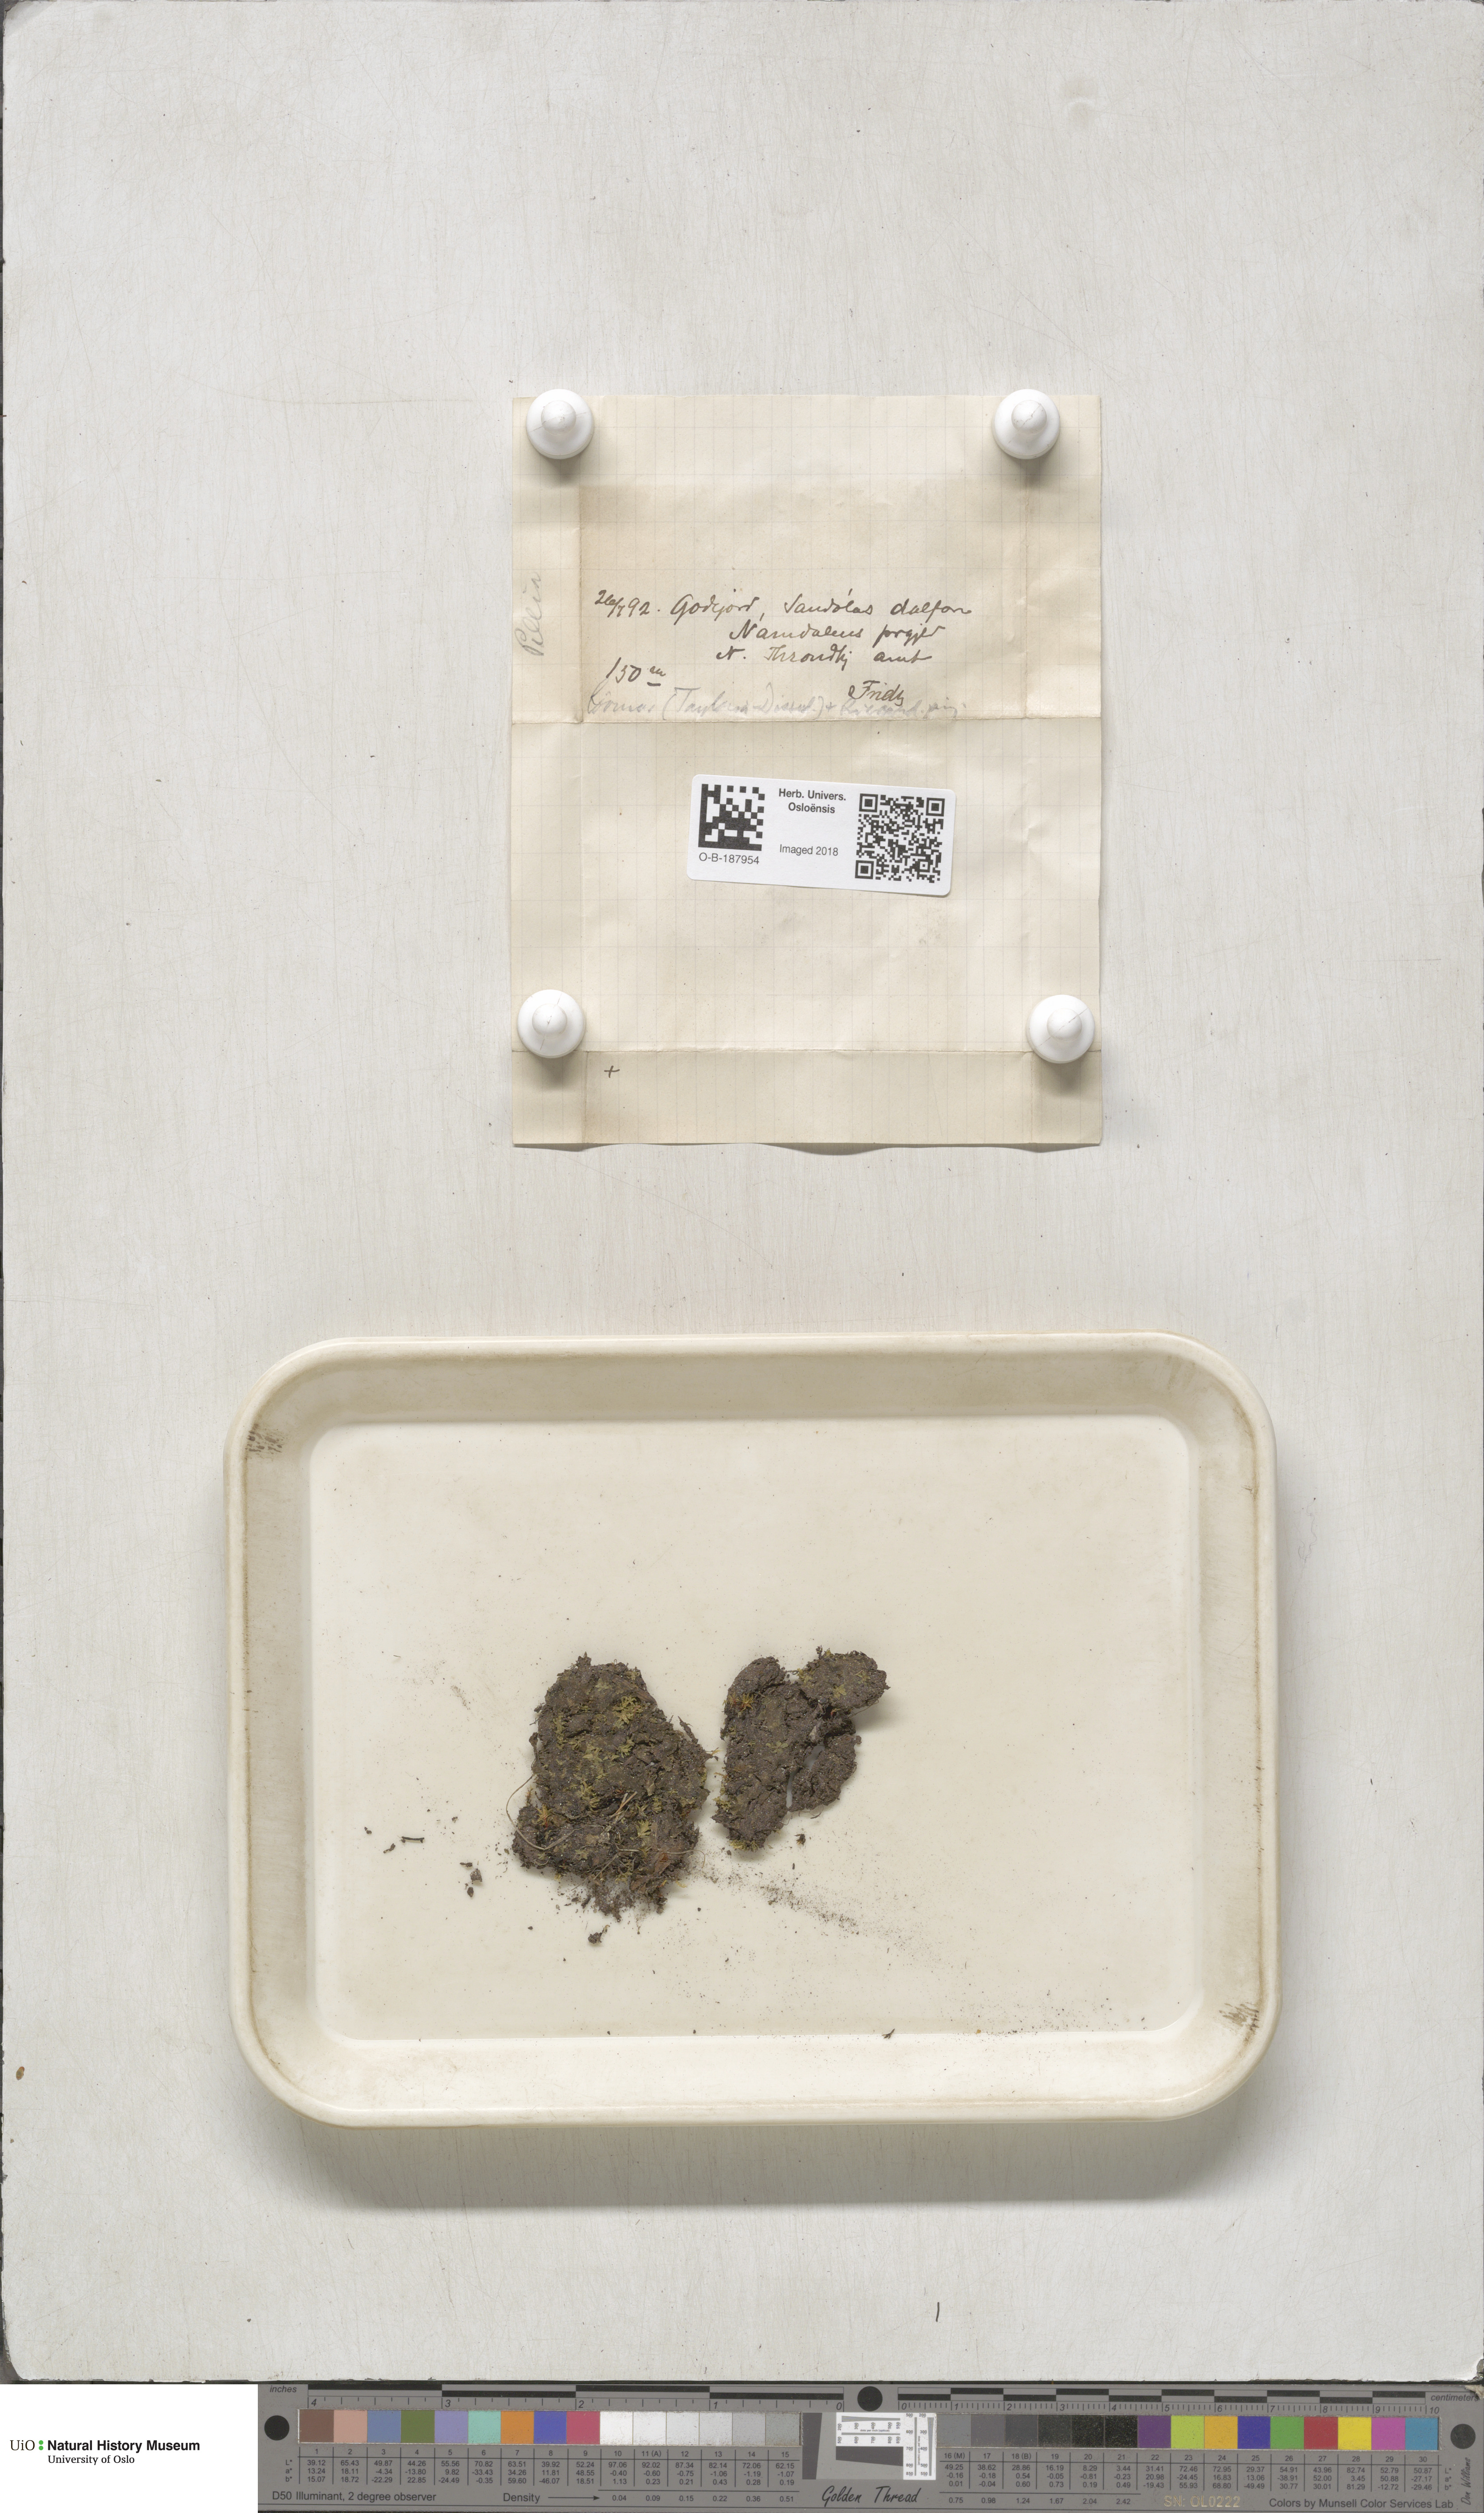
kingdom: Plantae
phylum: Bryophyta
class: Bryopsida
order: Splachnales
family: Splachnaceae
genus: Tayloria
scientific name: Tayloria lingulata
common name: Tongue-leaved trumpet moss
